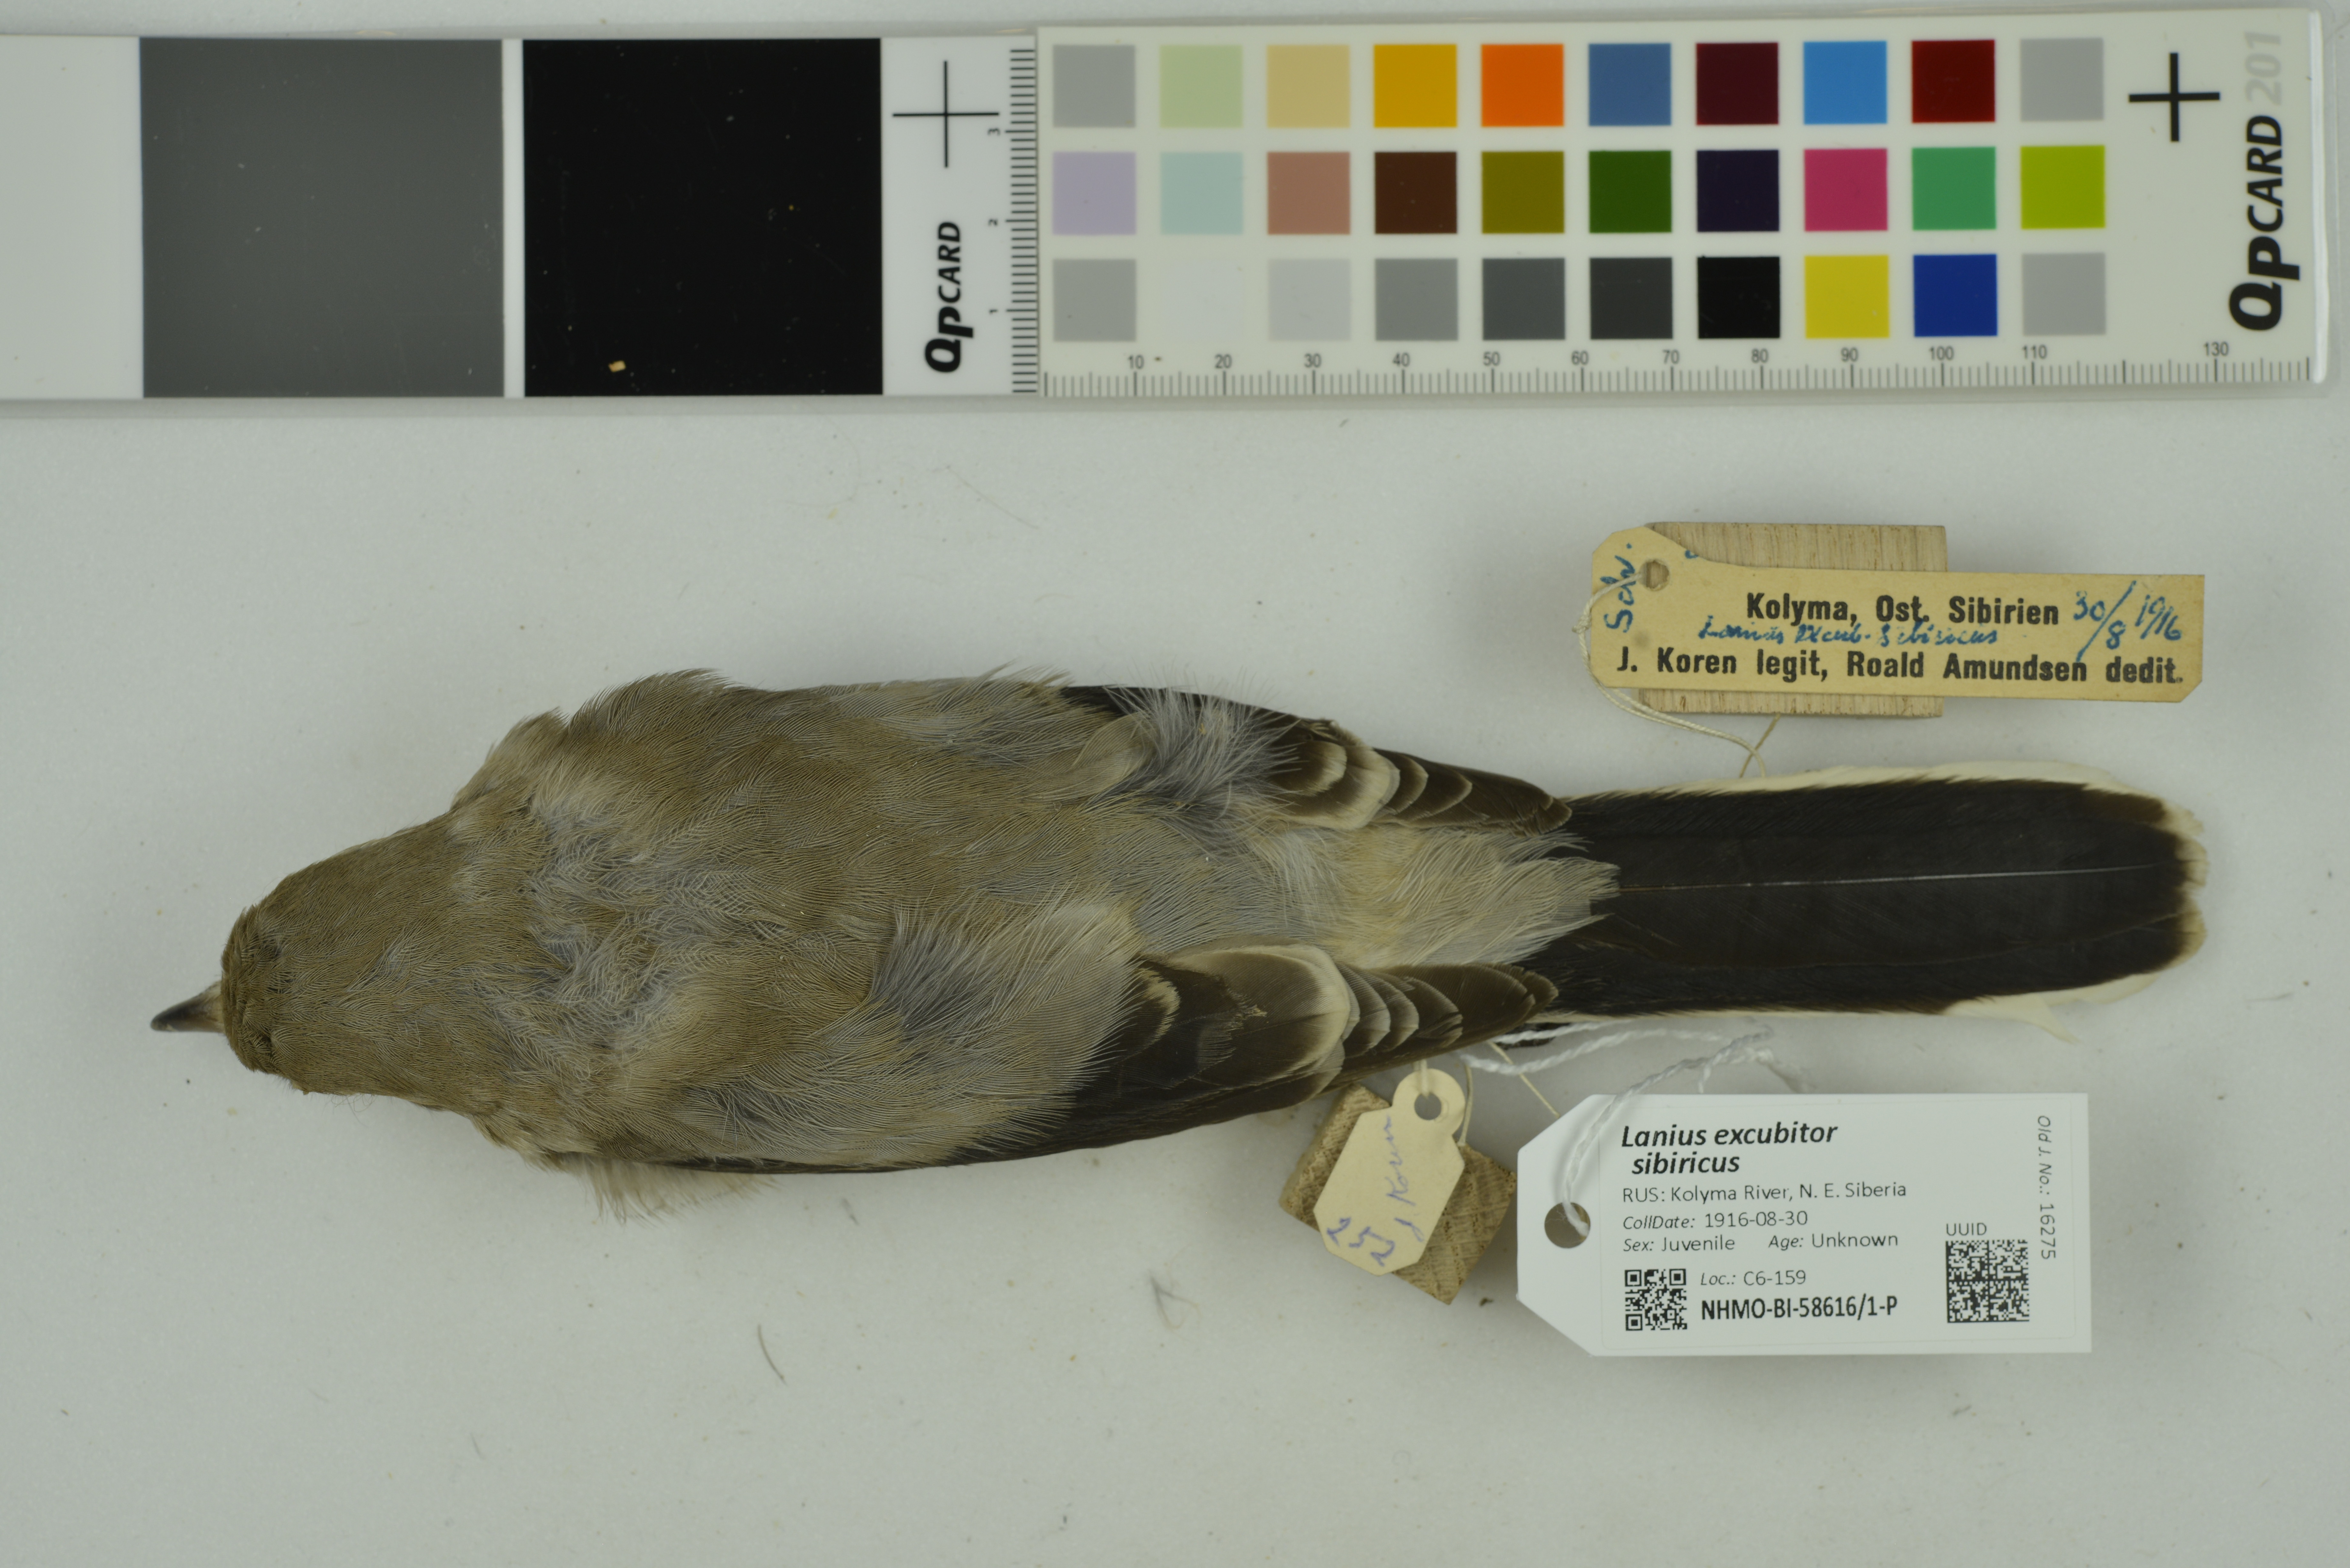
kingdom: Animalia
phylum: Chordata
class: Aves
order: Passeriformes
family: Laniidae
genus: Lanius
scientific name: Lanius borealis
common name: Northern shrike
